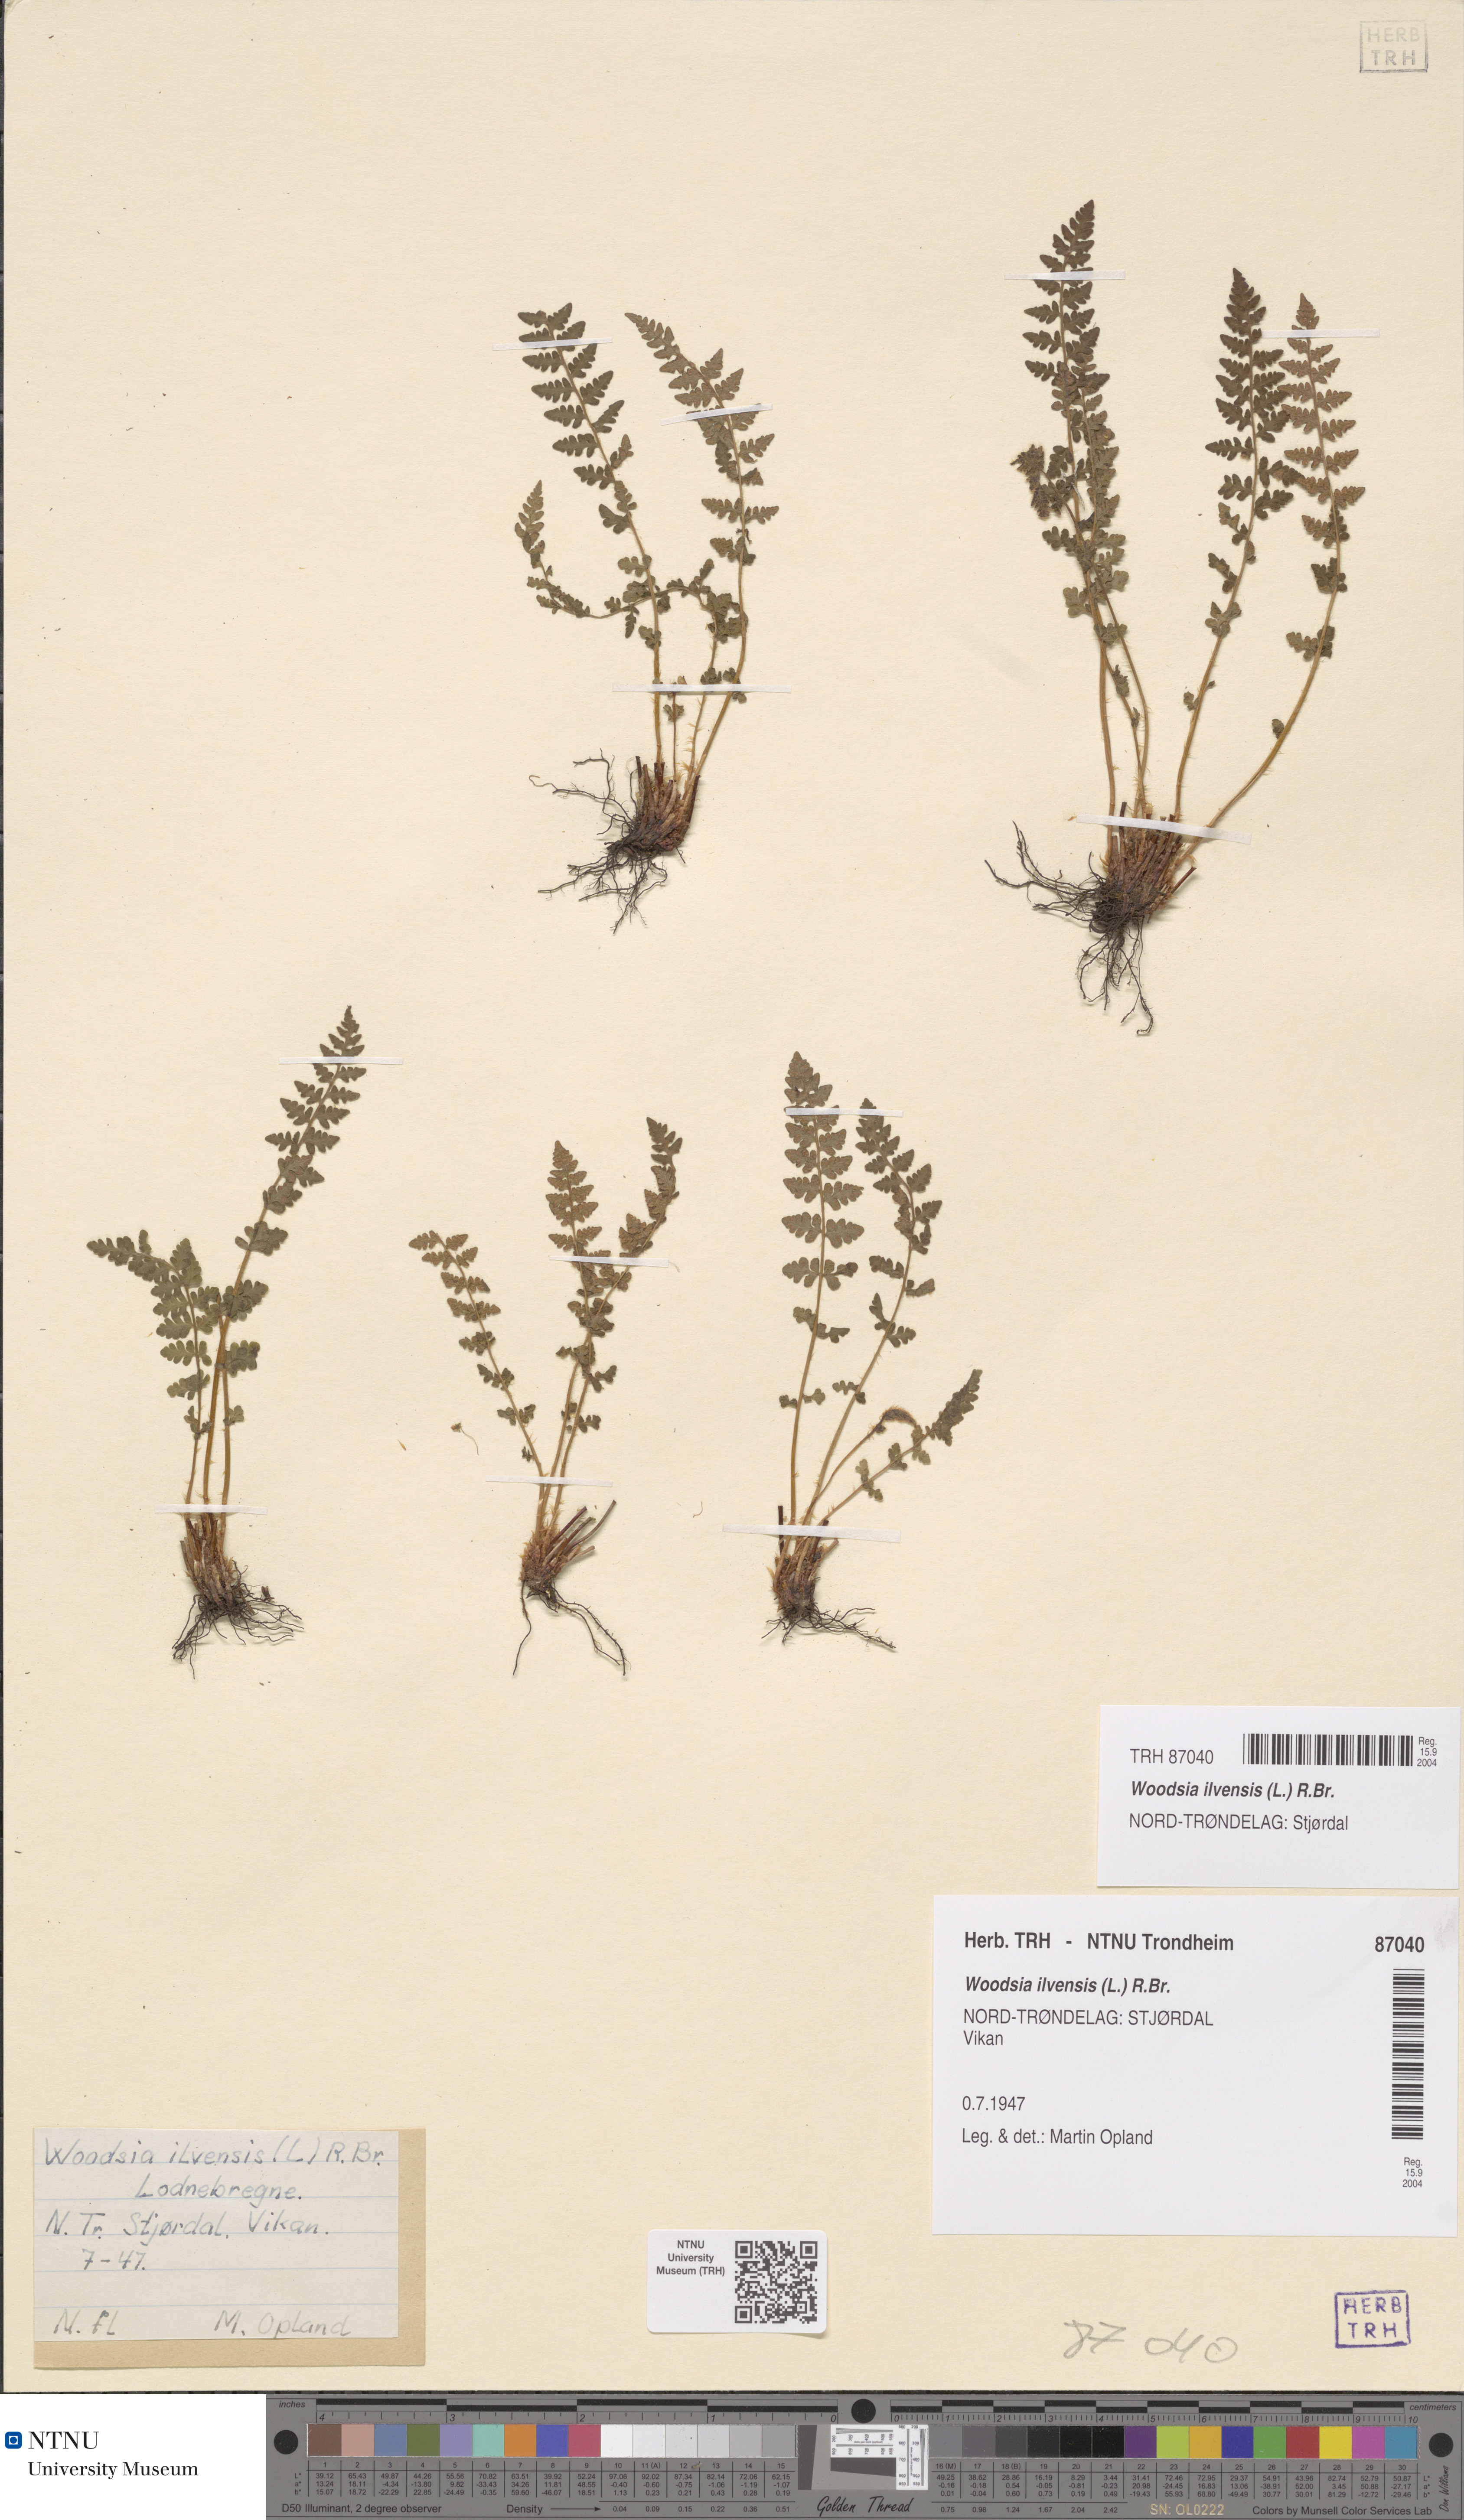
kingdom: Plantae
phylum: Tracheophyta
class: Polypodiopsida
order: Polypodiales
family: Woodsiaceae
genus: Woodsia
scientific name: Woodsia ilvensis
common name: Fragrant woodsia
